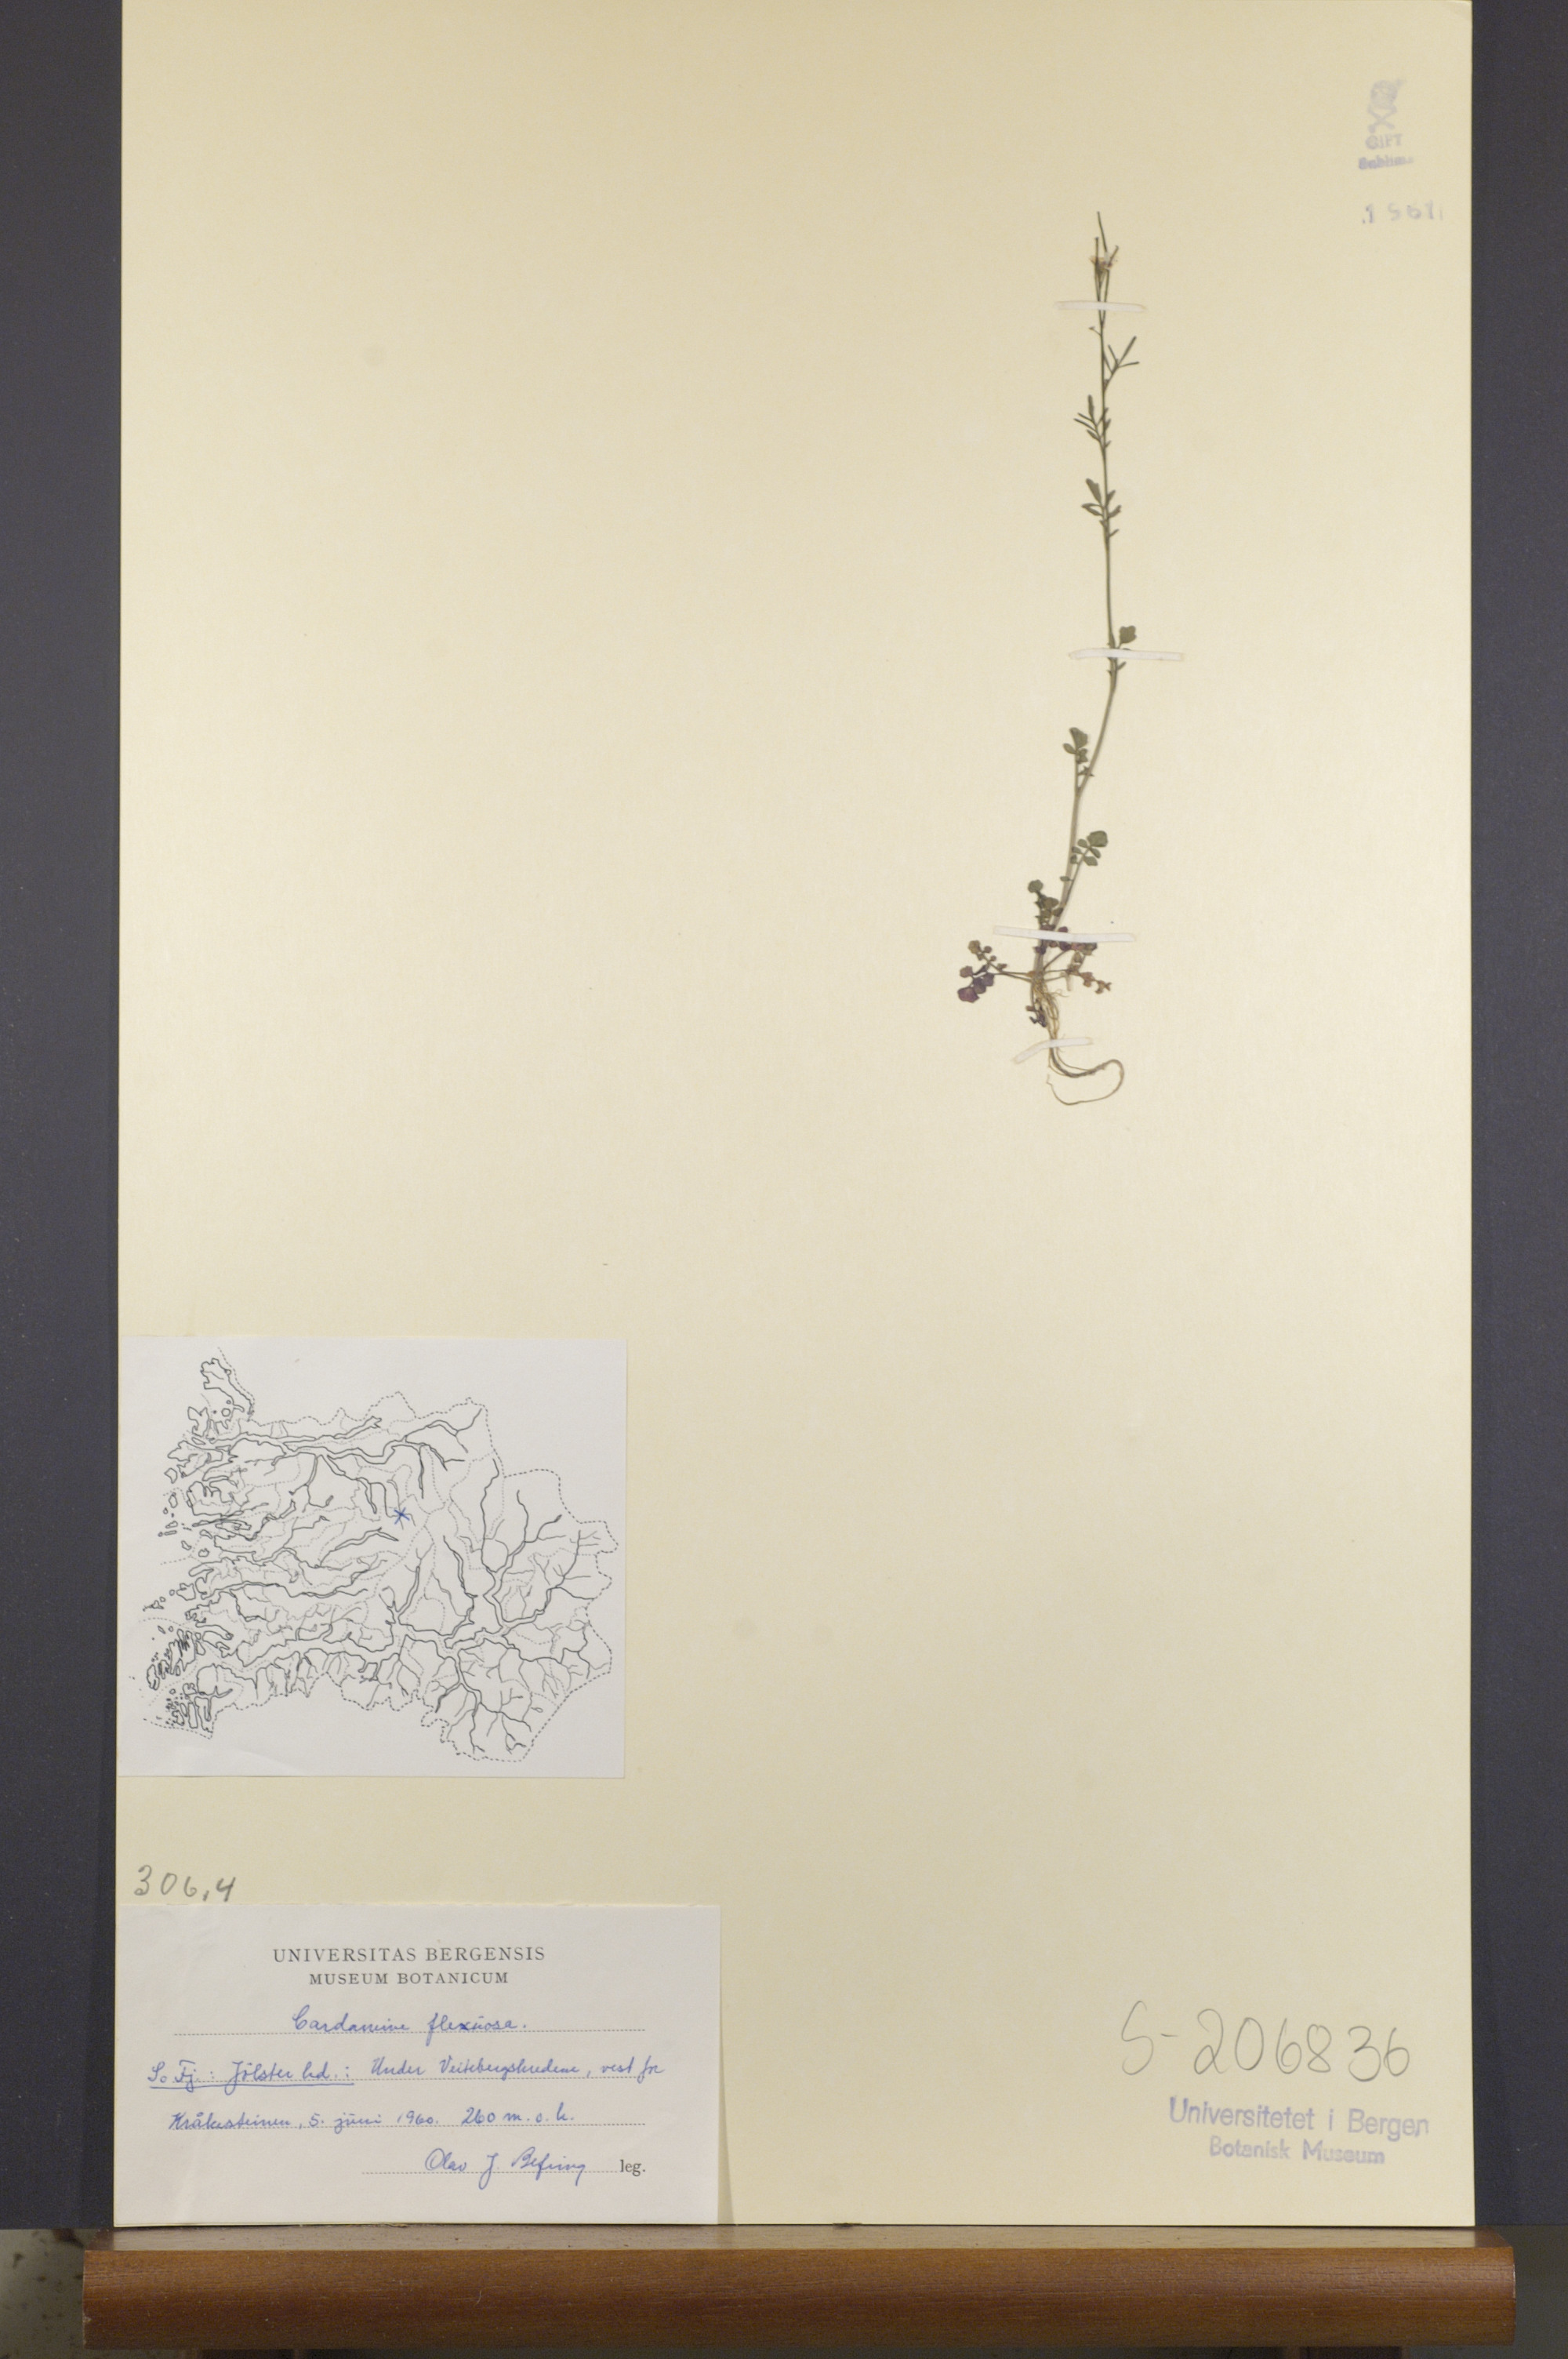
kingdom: Plantae
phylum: Tracheophyta
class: Magnoliopsida
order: Brassicales
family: Brassicaceae
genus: Cardamine
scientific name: Cardamine flexuosa
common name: Woodland bittercress
